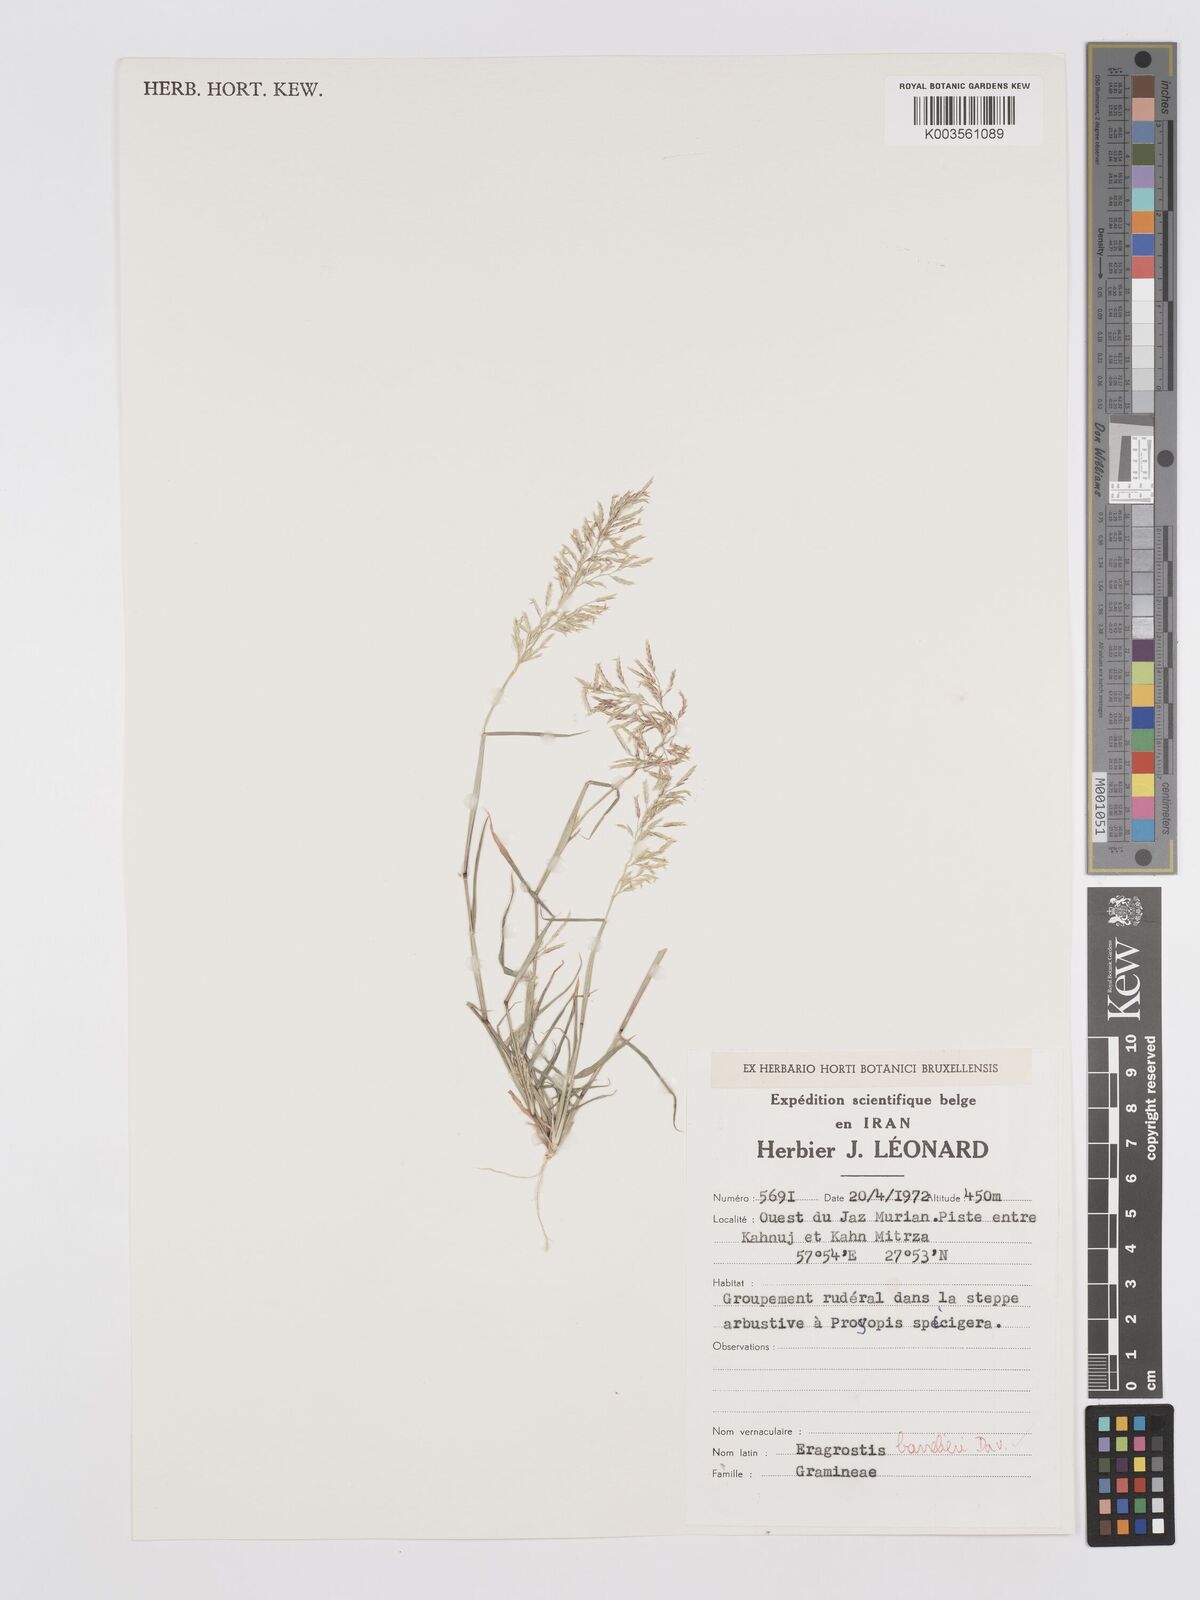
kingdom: Plantae
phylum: Tracheophyta
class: Liliopsida
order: Poales
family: Poaceae
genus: Eragrostis
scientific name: Eragrostis barrelieri
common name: Mediterranean lovegrass
